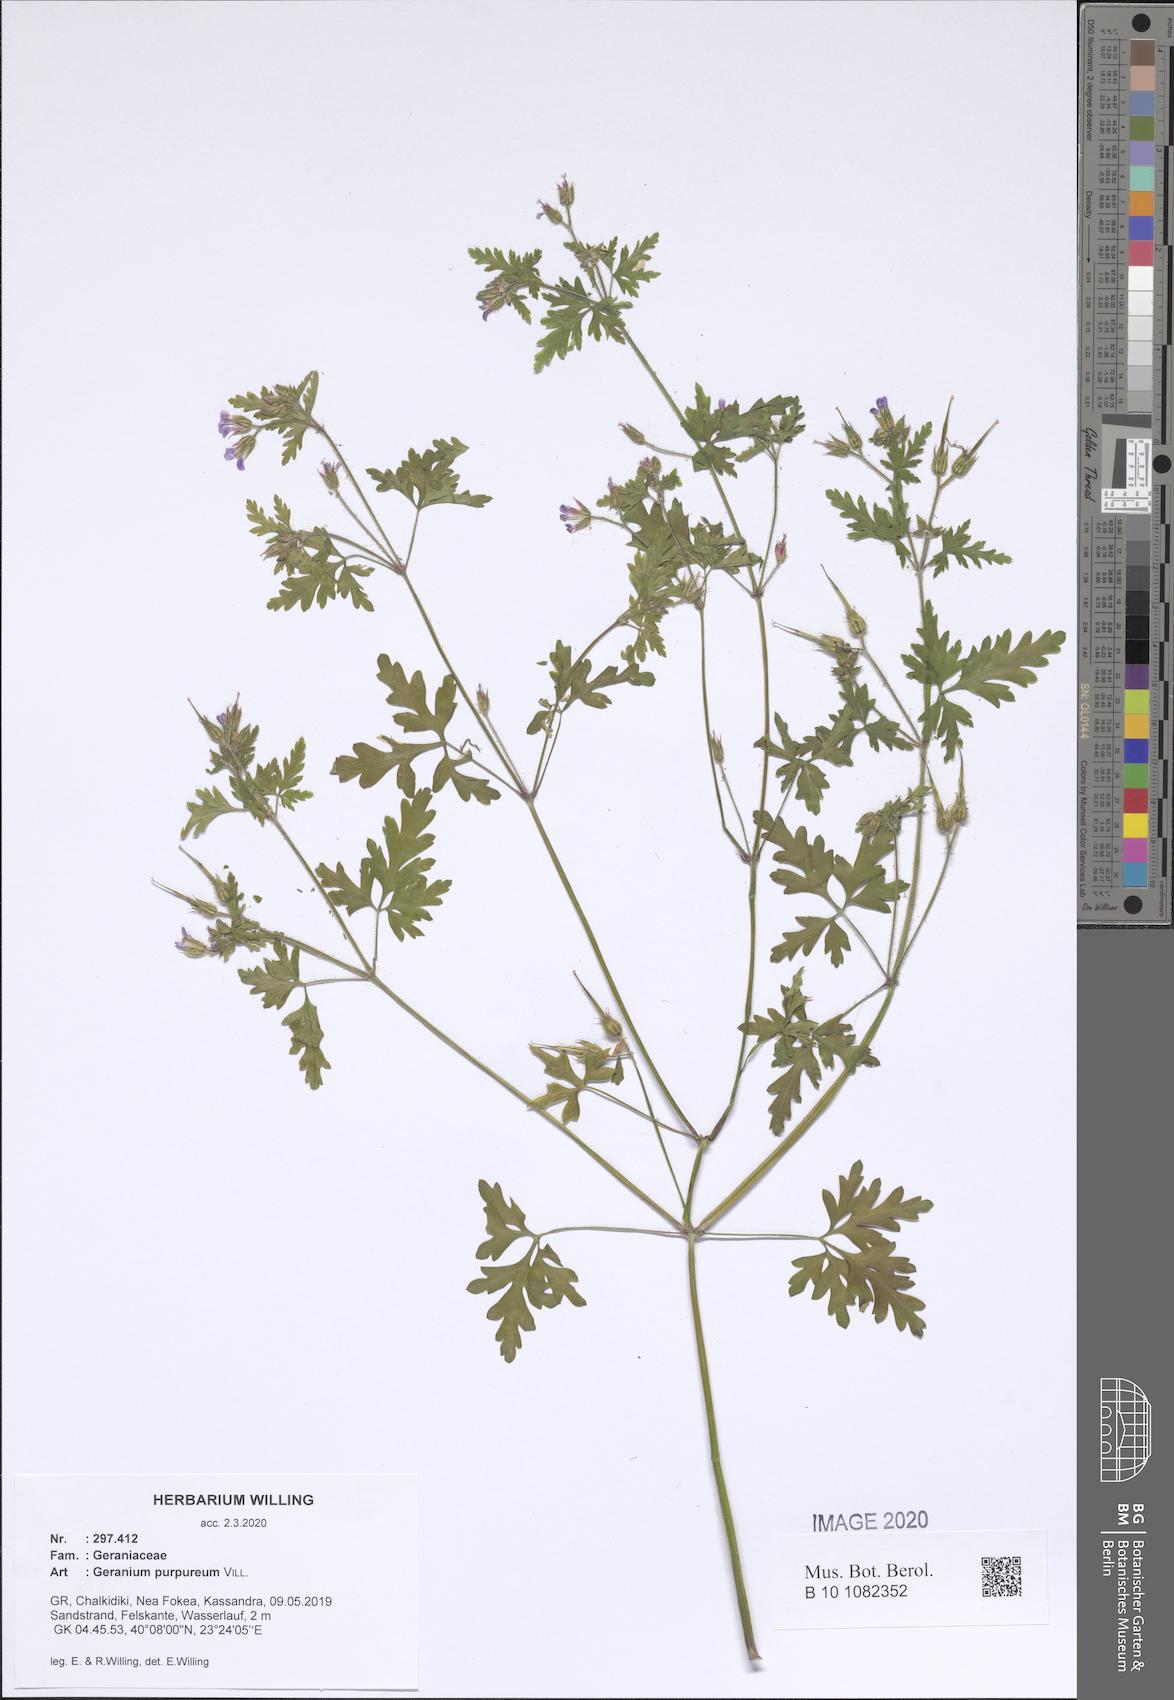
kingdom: Plantae
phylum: Tracheophyta
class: Magnoliopsida
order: Geraniales
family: Geraniaceae
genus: Geranium
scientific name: Geranium purpureum
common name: Little-robin
